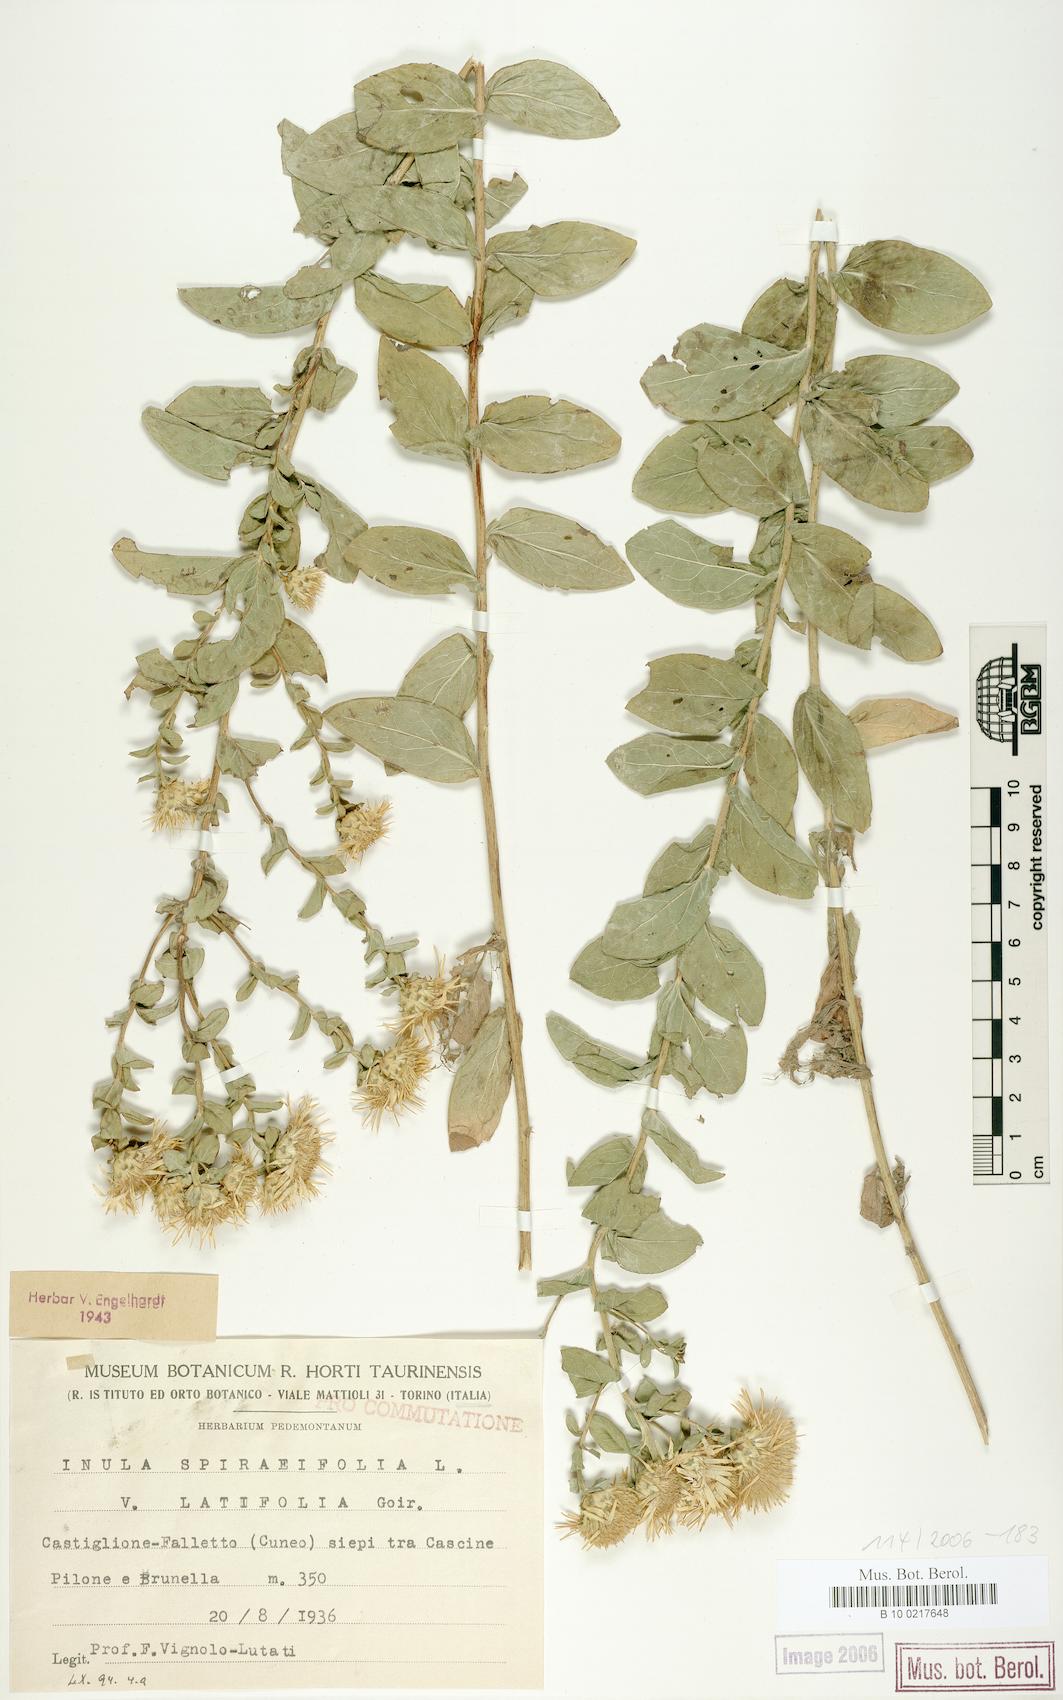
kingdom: Plantae
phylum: Tracheophyta
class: Magnoliopsida
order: Asterales
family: Asteraceae
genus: Pentanema
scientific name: Pentanema spiraeifolium
